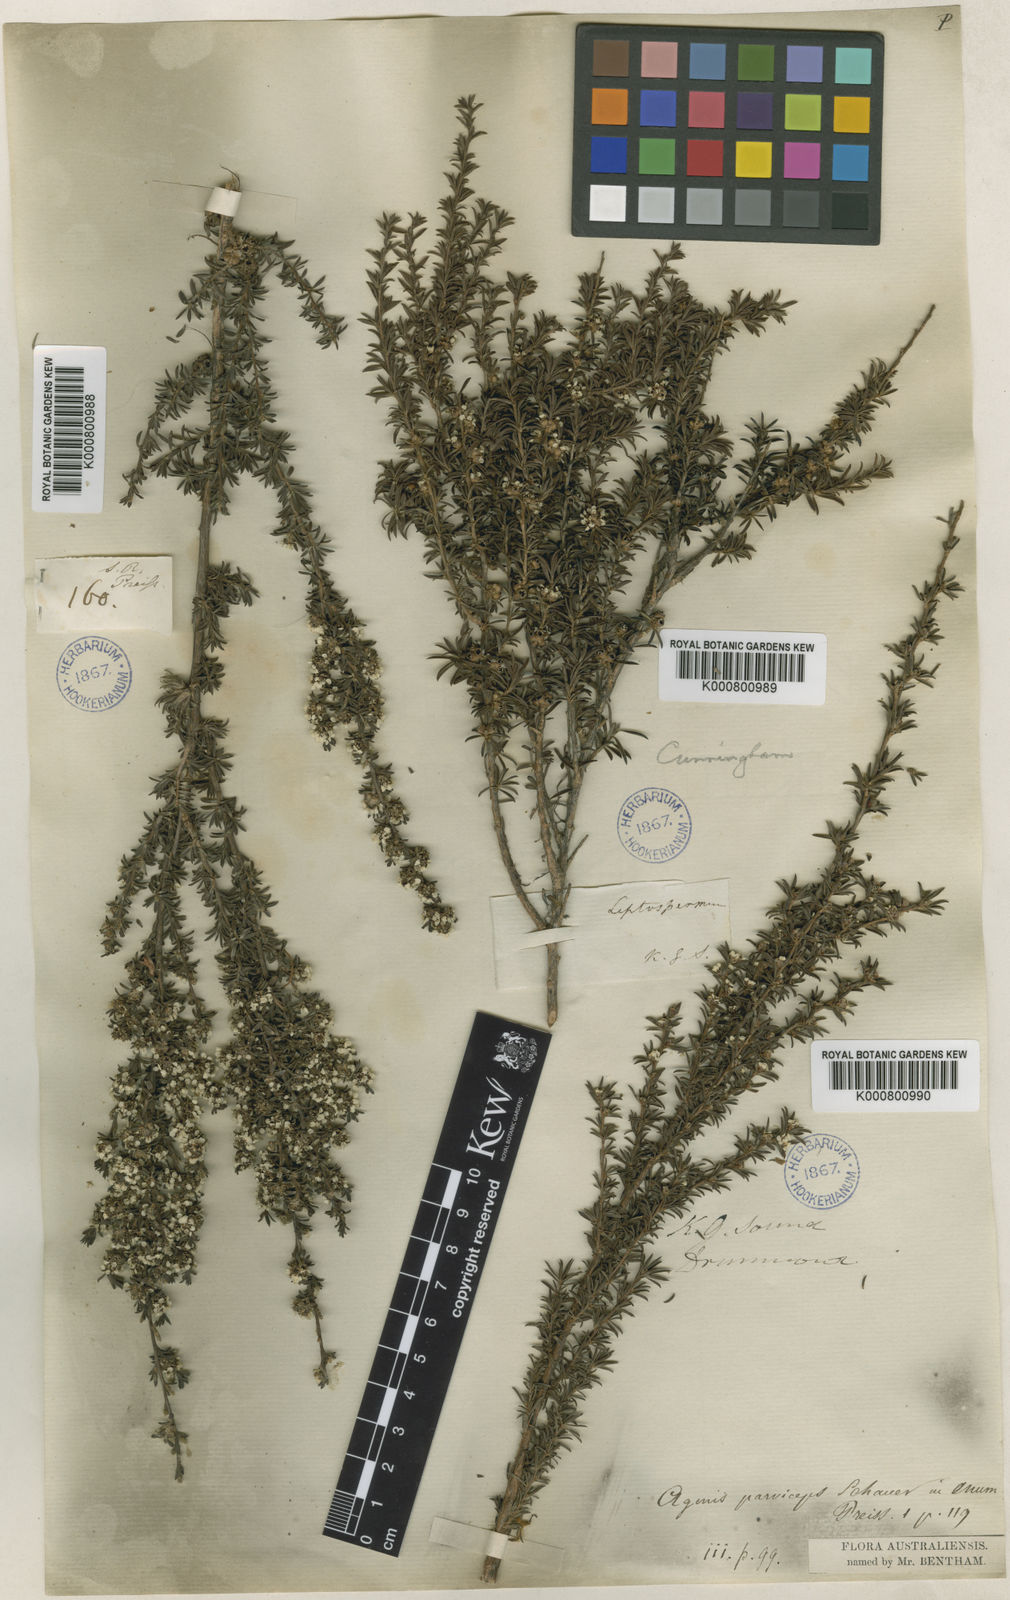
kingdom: Plantae
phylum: Tracheophyta
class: Magnoliopsida
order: Myrtales
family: Myrtaceae
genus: Taxandria
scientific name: Taxandria parviceps
